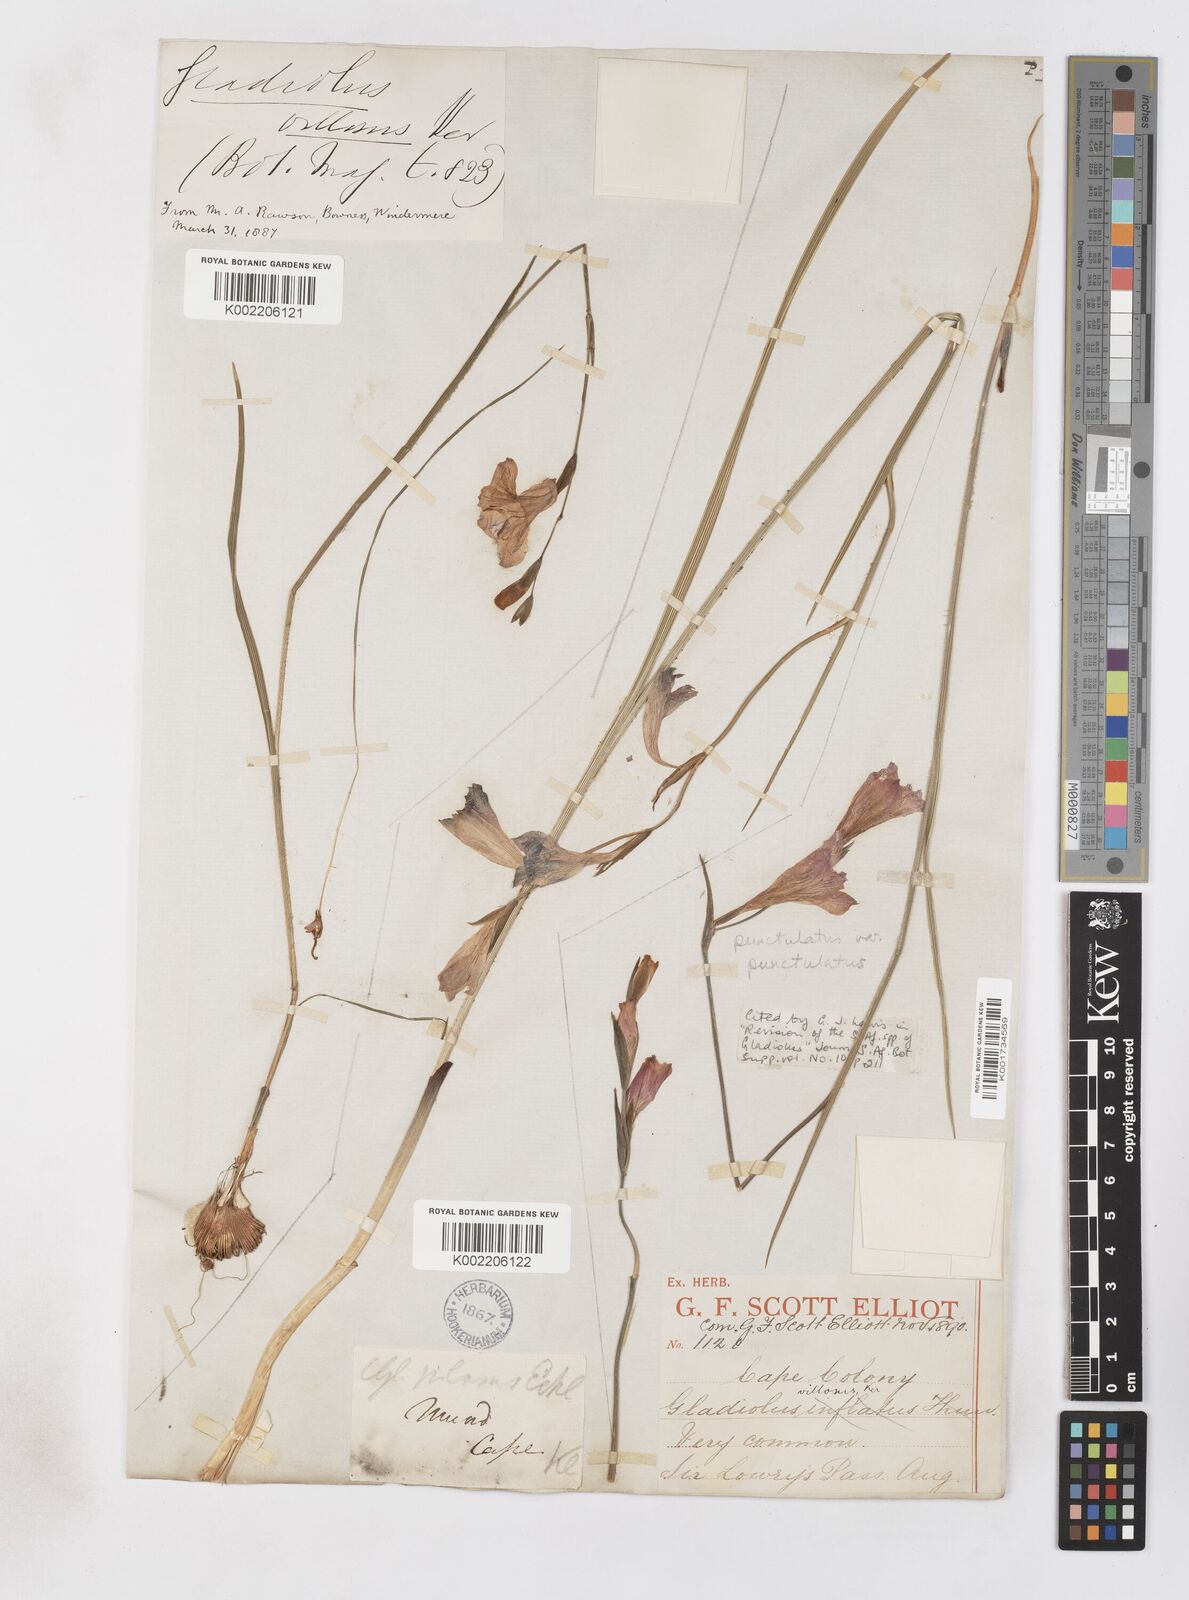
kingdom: Plantae
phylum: Tracheophyta
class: Liliopsida
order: Asparagales
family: Iridaceae
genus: Gladiolus
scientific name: Gladiolus hirsutus
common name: Small pink afrikaner
